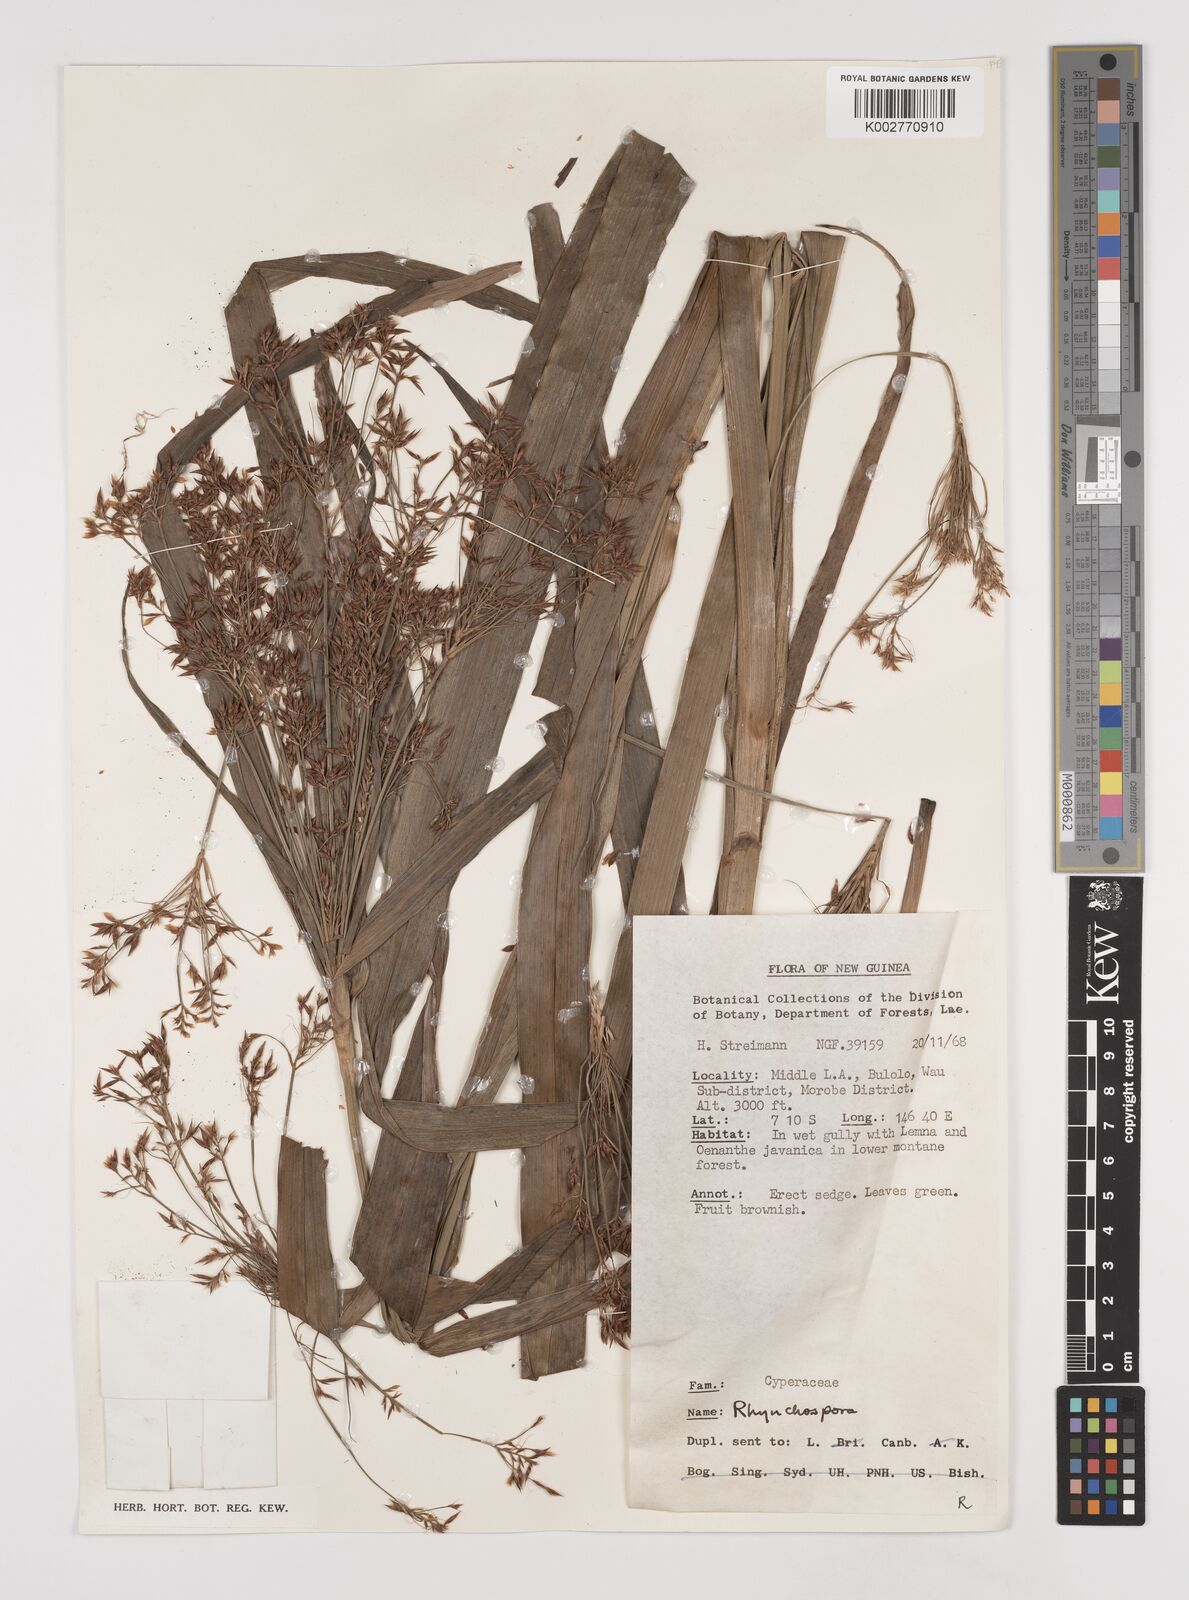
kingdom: Plantae
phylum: Tracheophyta
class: Liliopsida
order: Poales
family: Cyperaceae
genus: Rhynchospora
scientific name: Rhynchospora corymbosa
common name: Golden beak sedge
